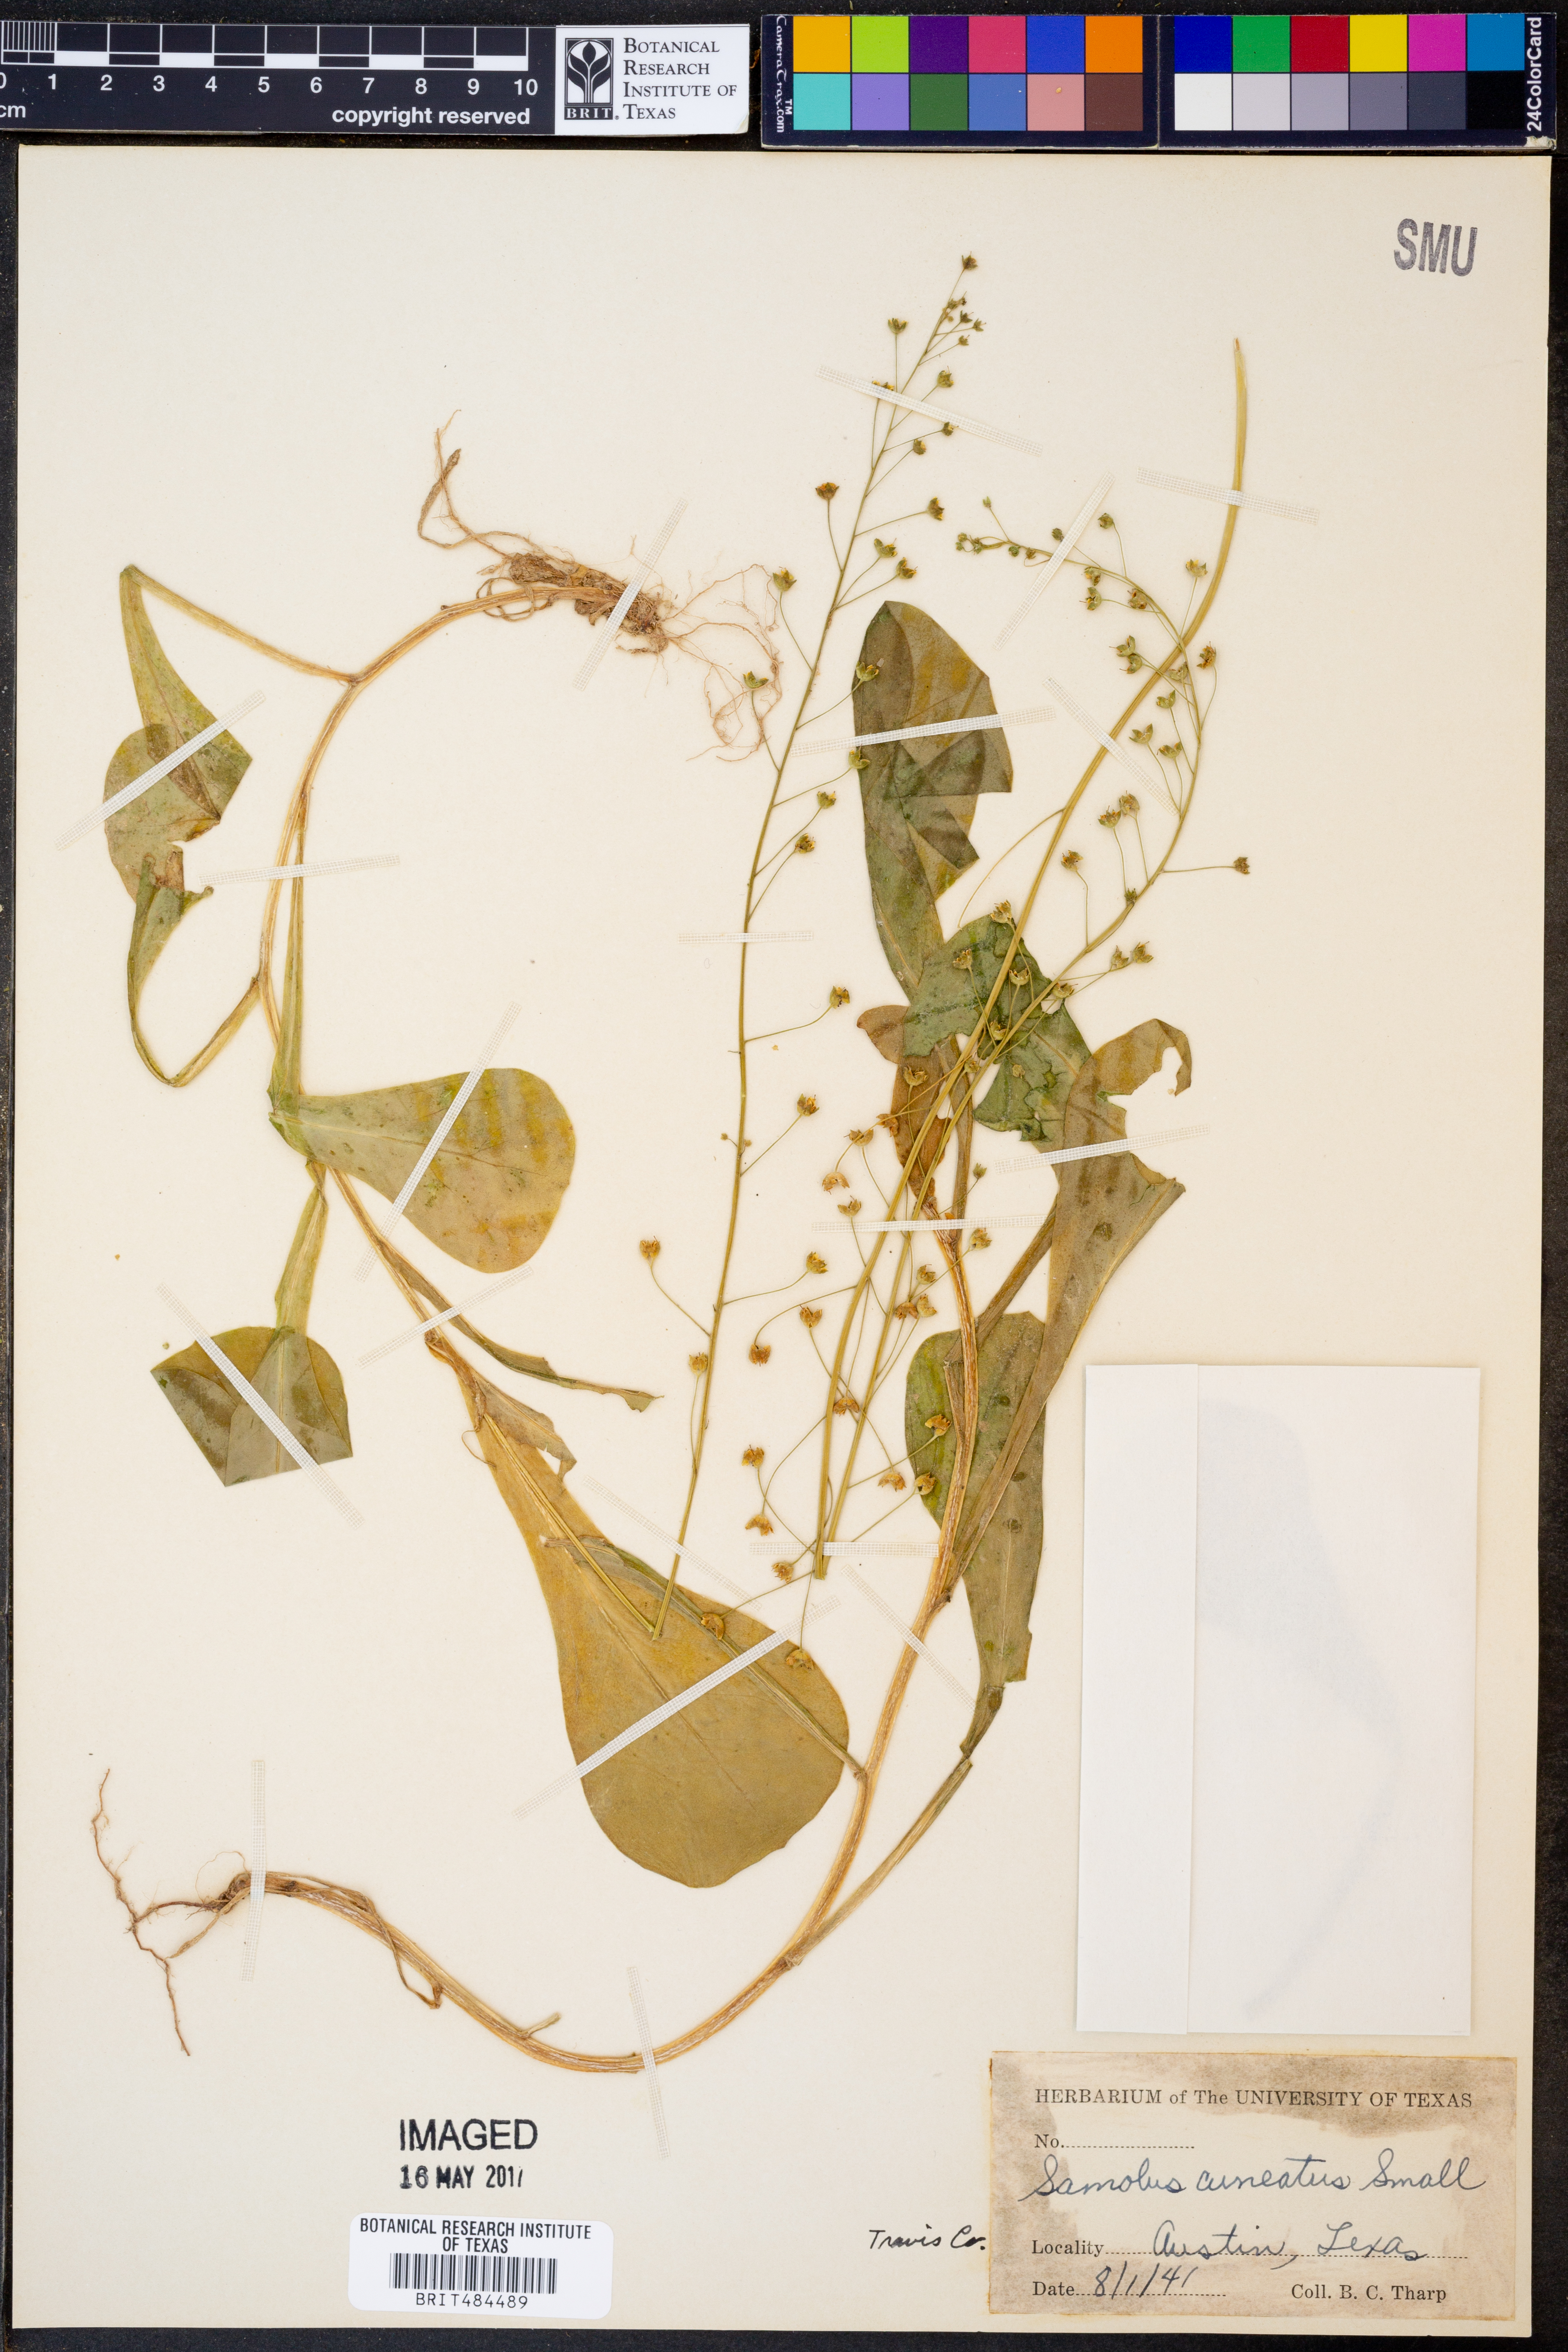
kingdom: Plantae
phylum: Tracheophyta
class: Magnoliopsida
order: Ericales
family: Primulaceae
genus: Samolus
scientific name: Samolus ebracteatus
